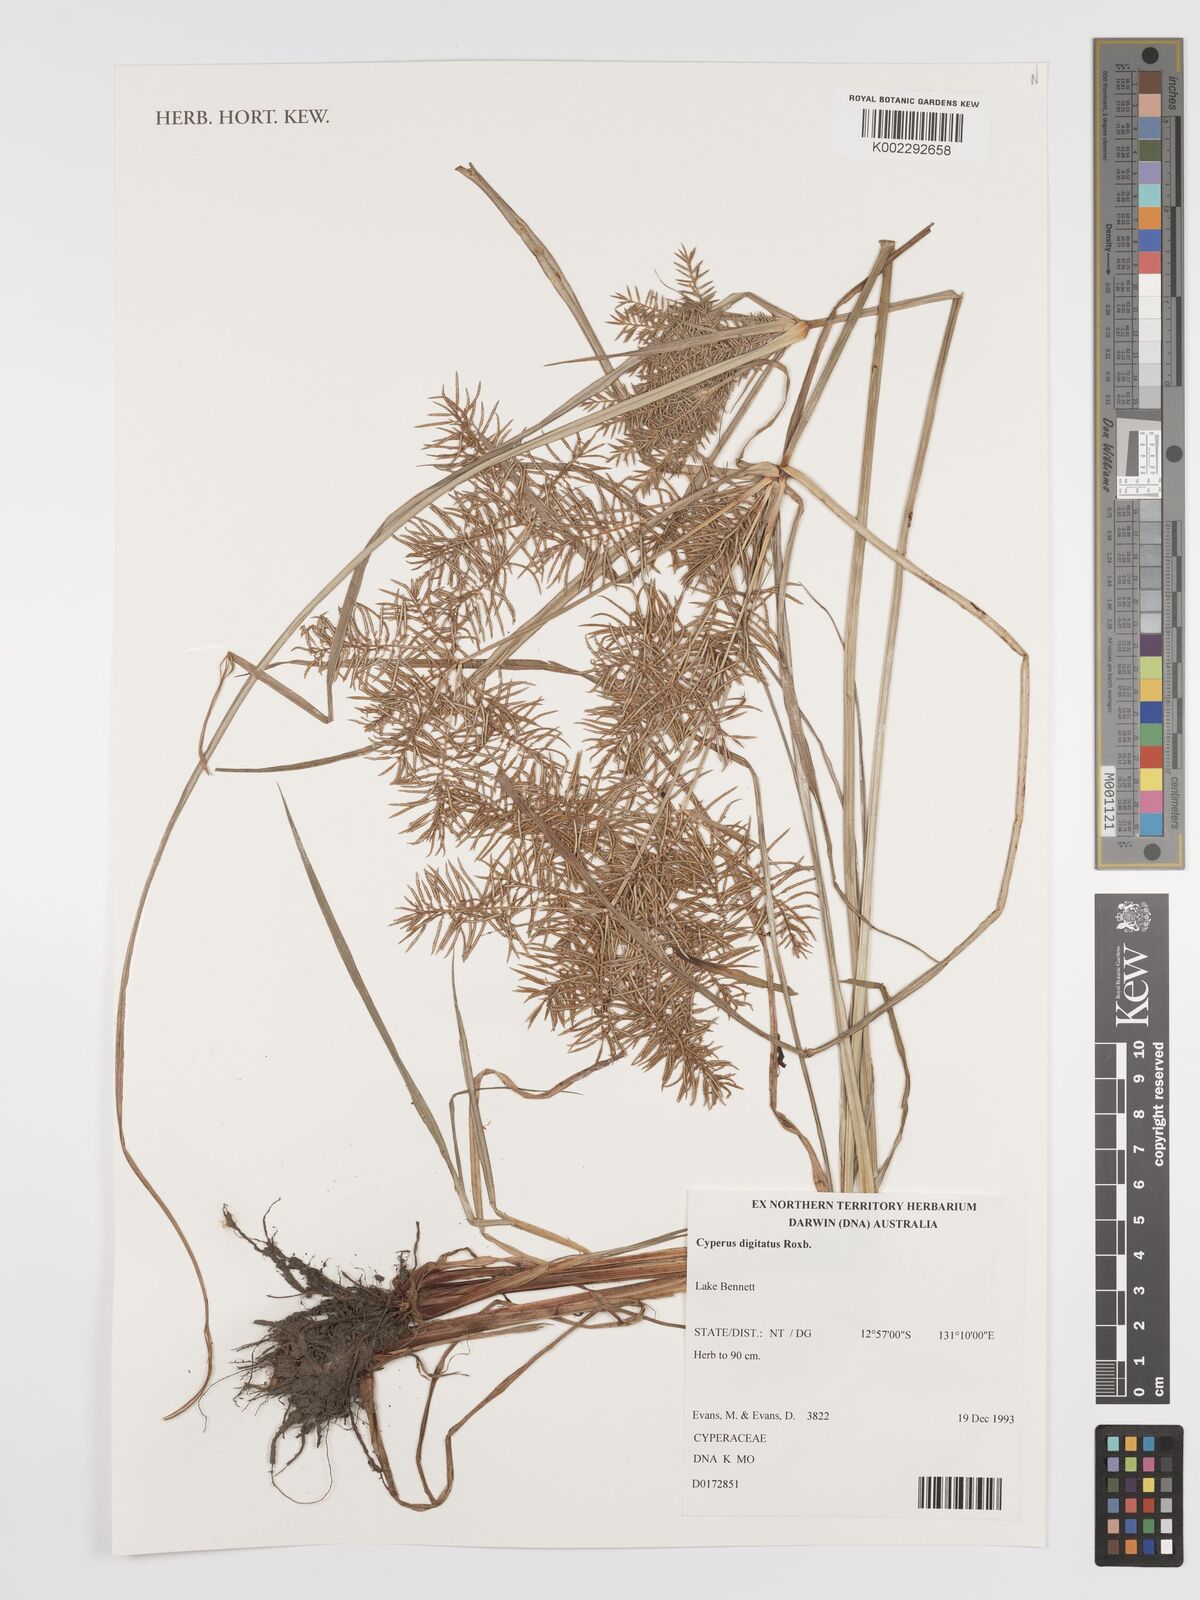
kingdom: Plantae
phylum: Tracheophyta
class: Liliopsida
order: Poales
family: Cyperaceae
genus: Cyperus
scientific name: Cyperus digitatus
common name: Finger flatsedge
